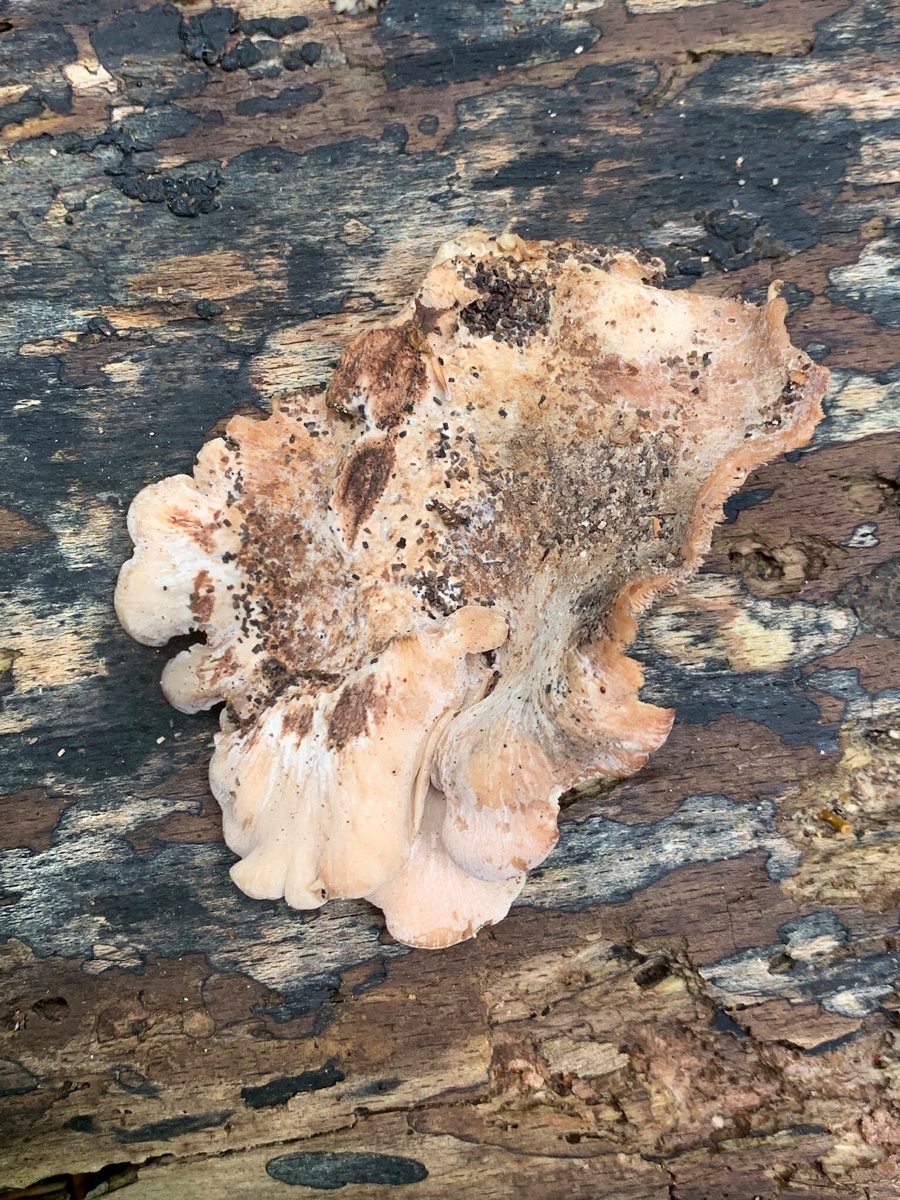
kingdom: Fungi
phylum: Basidiomycota
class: Agaricomycetes
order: Russulales
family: Auriscalpiaceae
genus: Lentinellus
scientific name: Lentinellus ursinus
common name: børstehåret savbladhat
